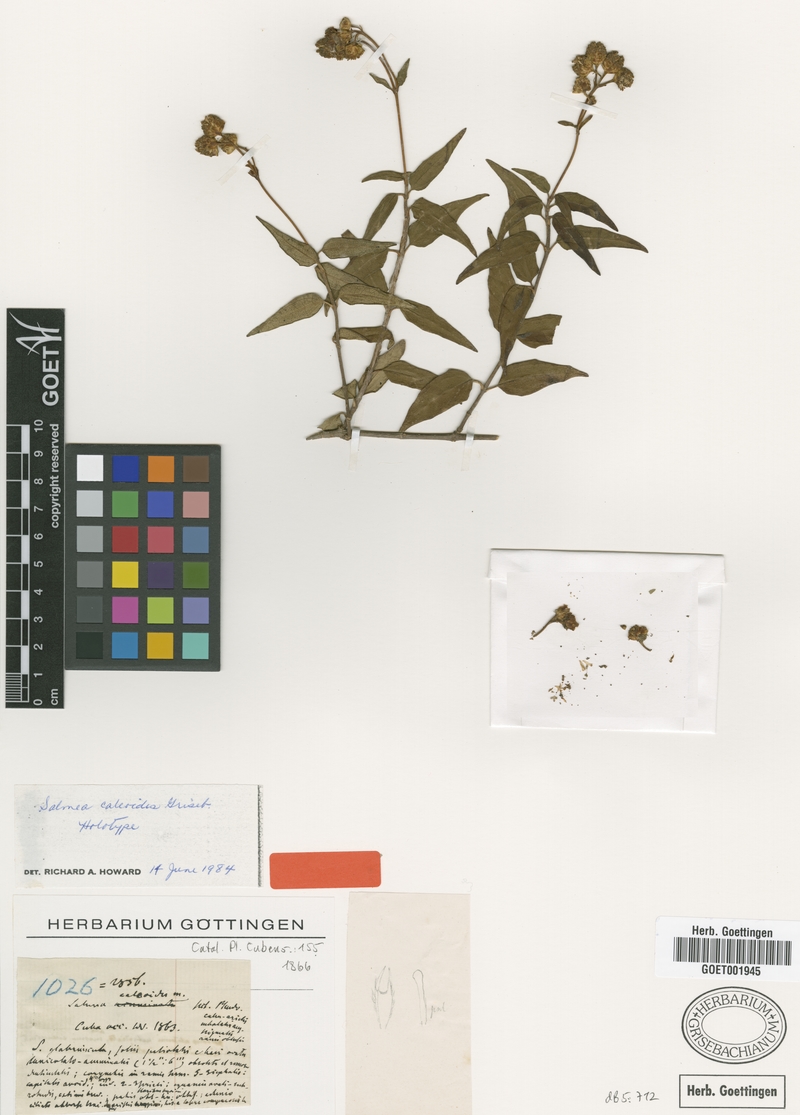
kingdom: Plantae
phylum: Tracheophyta
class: Magnoliopsida
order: Asterales
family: Asteraceae
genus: Salmea
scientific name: Salmea caleoides
